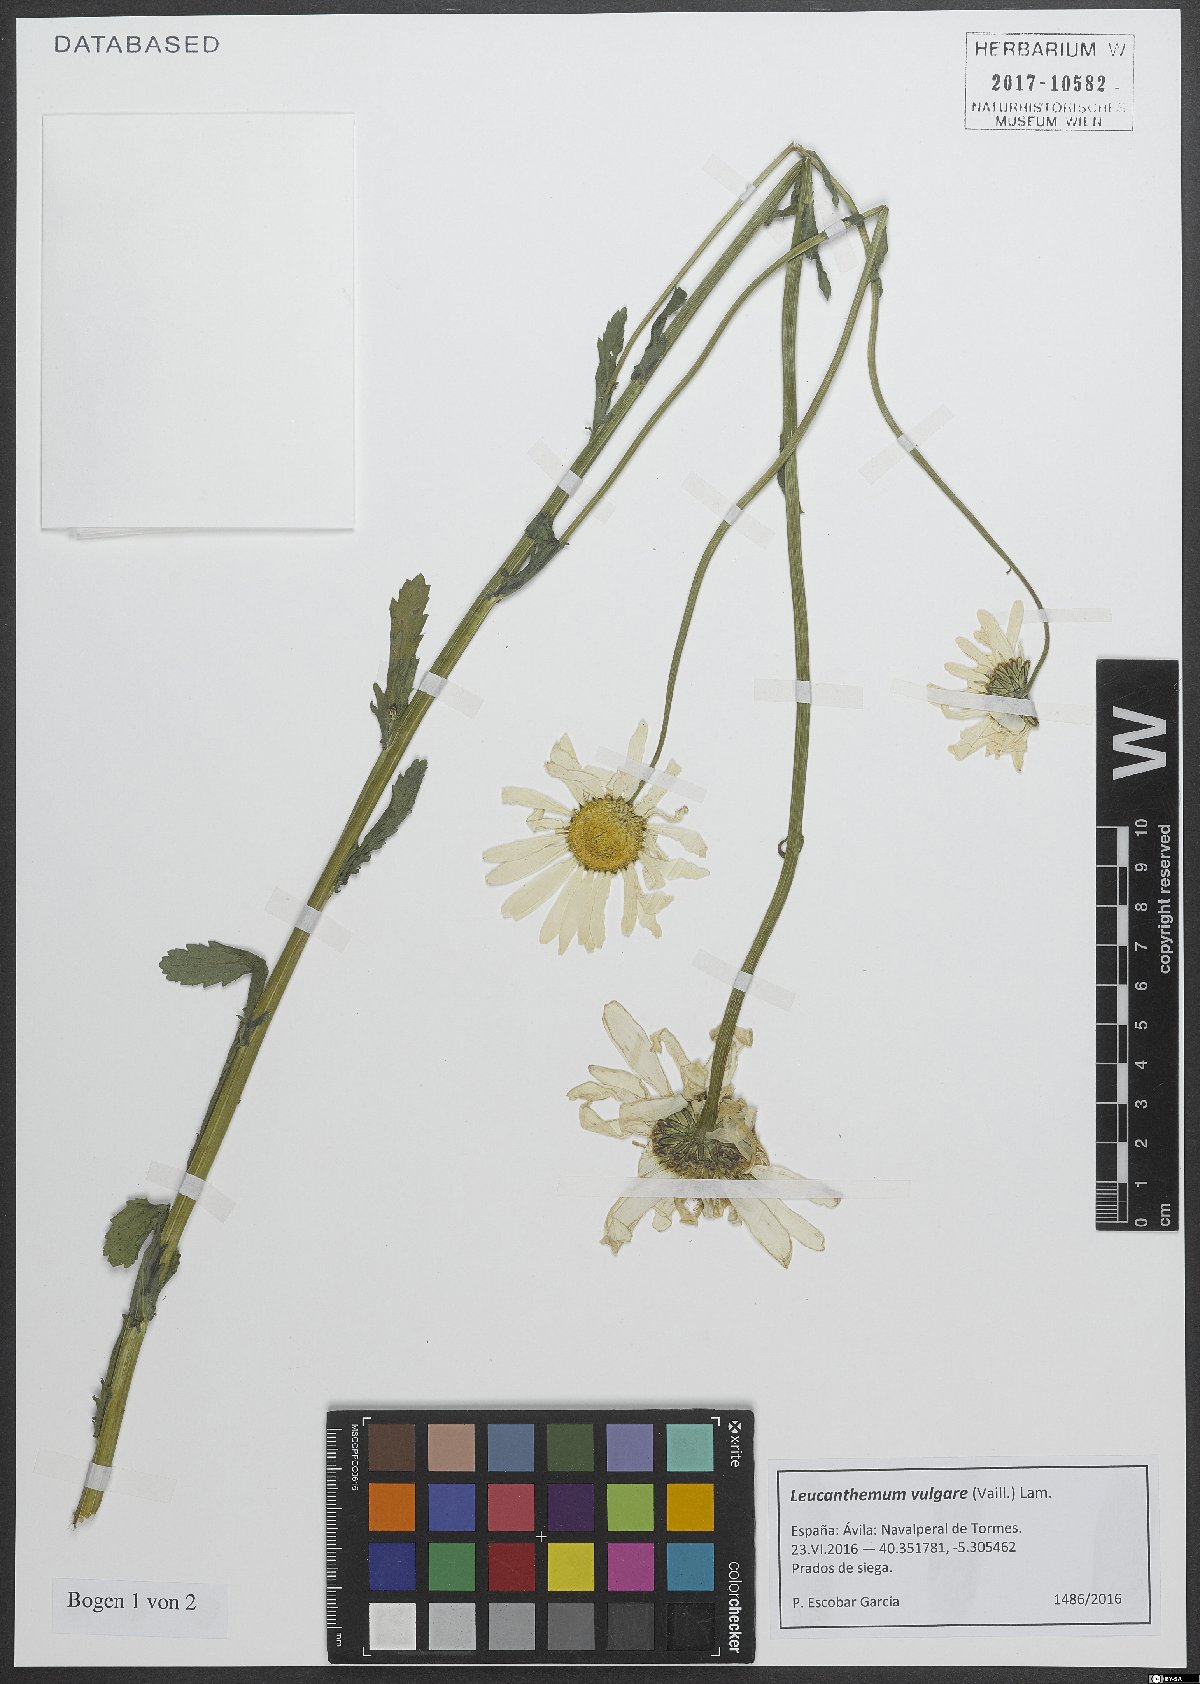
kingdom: Plantae
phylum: Tracheophyta
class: Magnoliopsida
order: Asterales
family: Asteraceae
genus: Leucanthemum
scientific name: Leucanthemum vulgare
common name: Oxeye daisy
